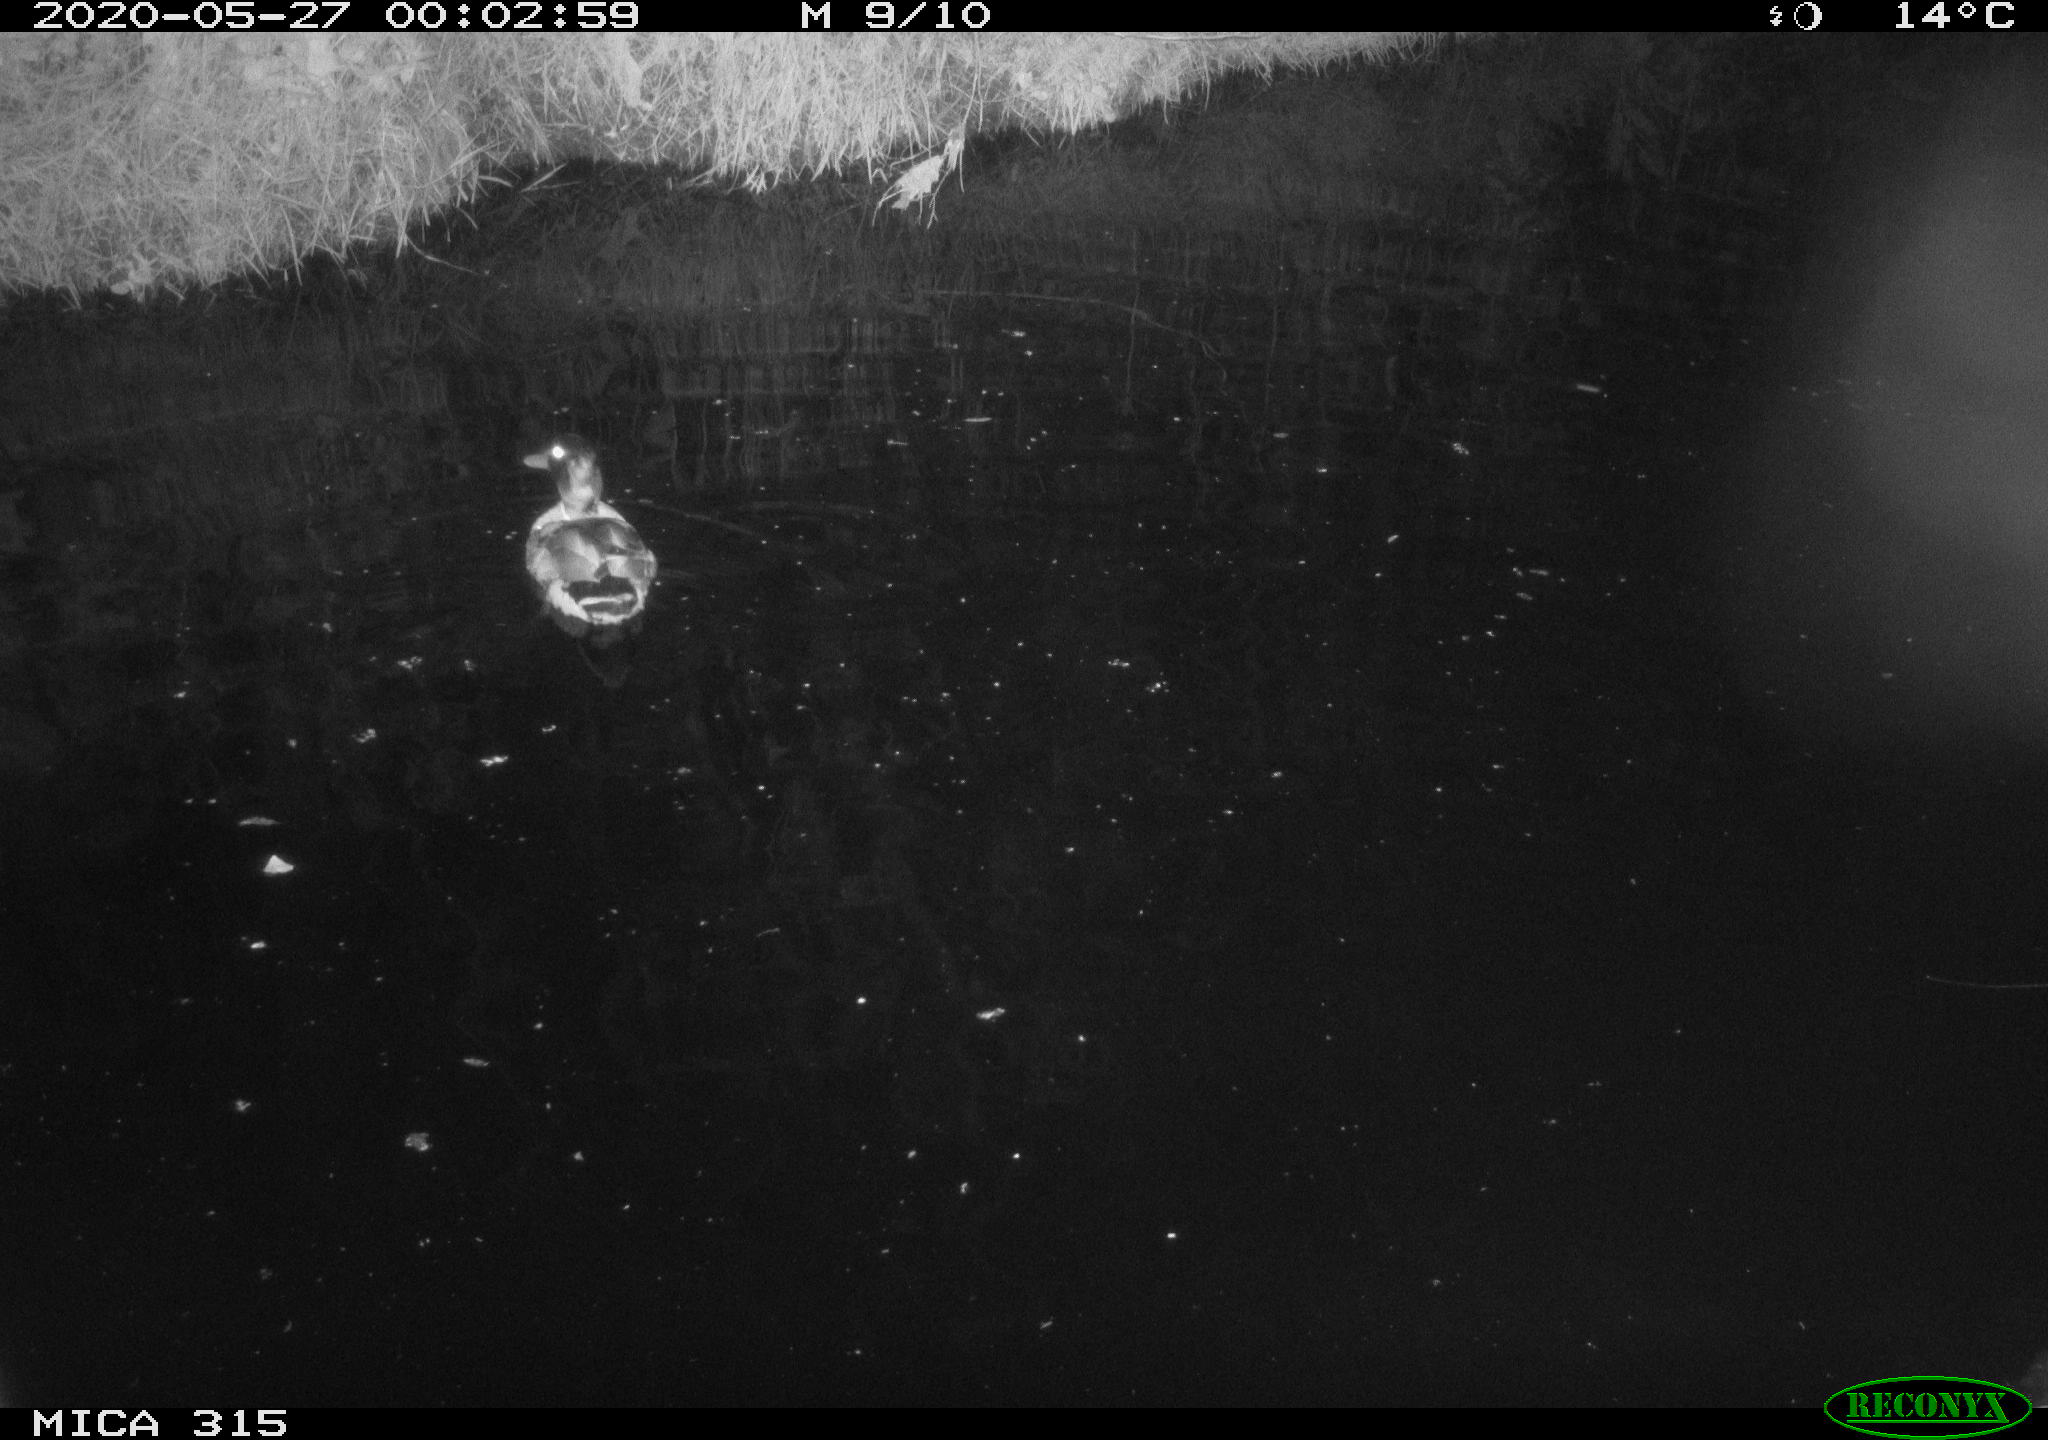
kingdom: Animalia
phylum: Chordata
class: Aves
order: Anseriformes
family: Anatidae
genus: Anas
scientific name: Anas platyrhynchos
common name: Mallard
